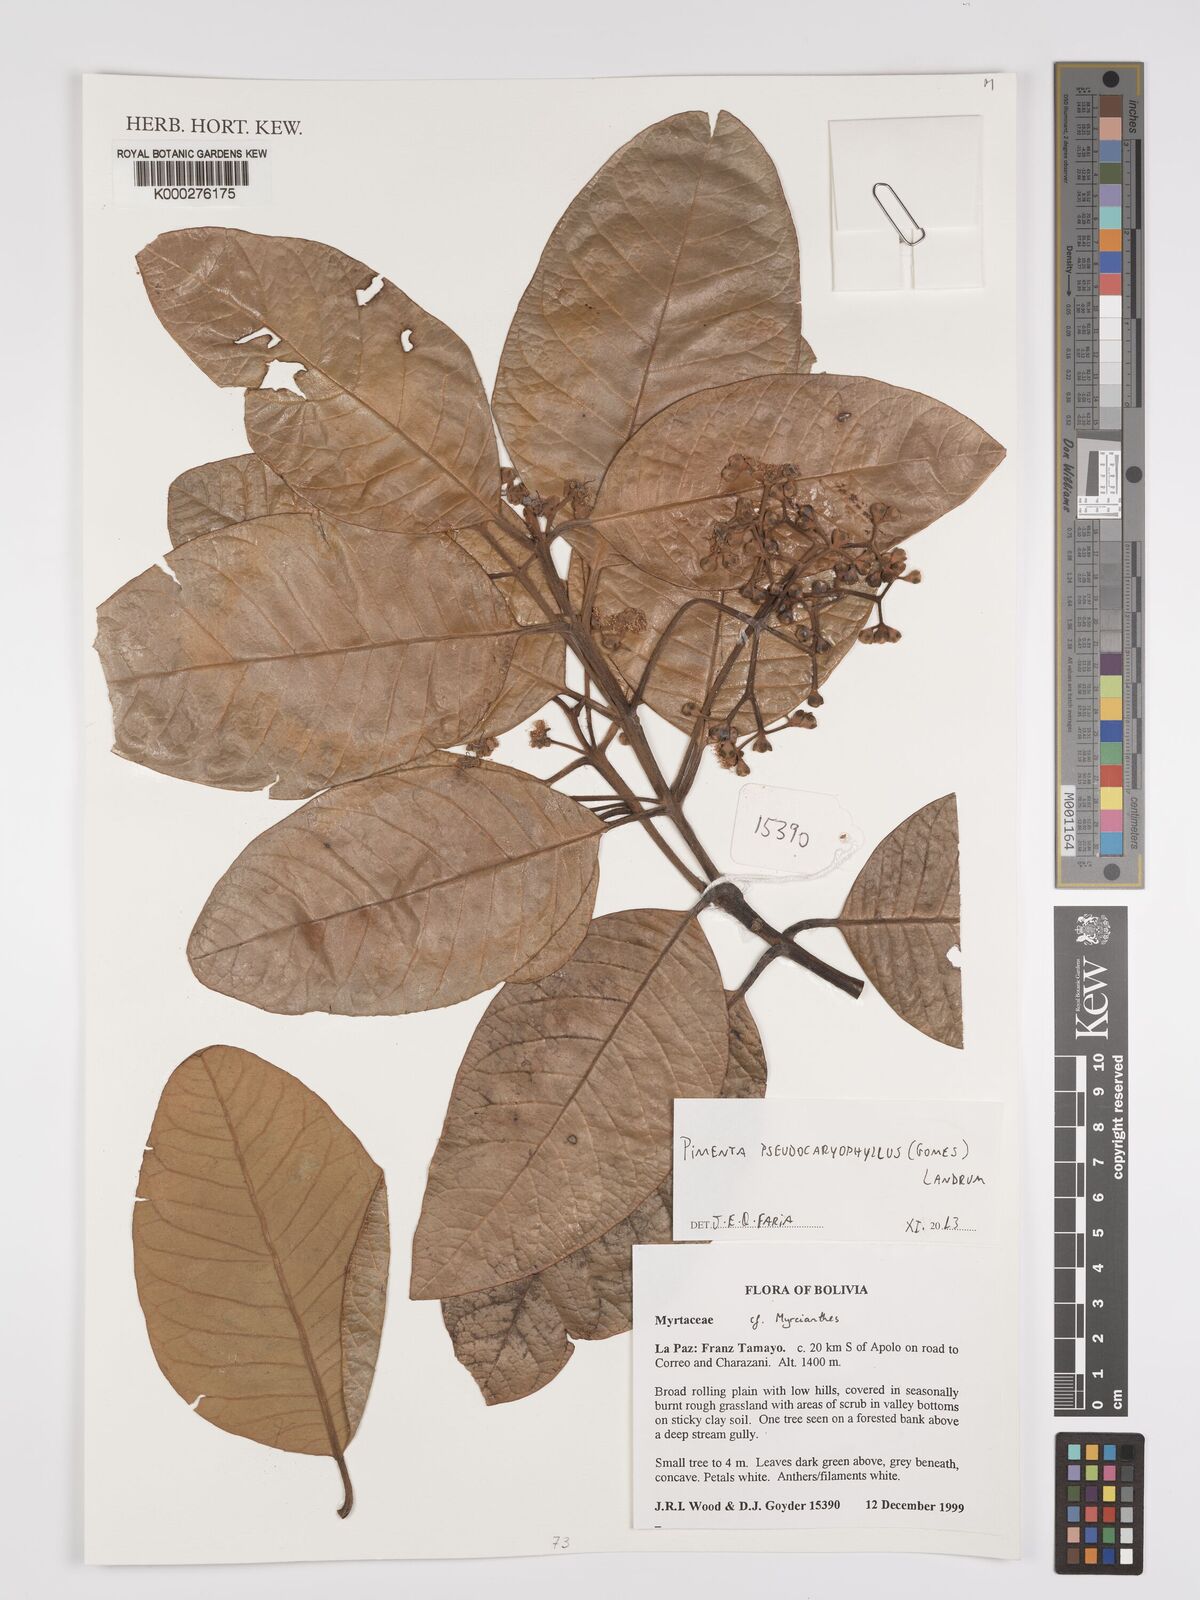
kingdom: Plantae
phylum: Tracheophyta
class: Magnoliopsida
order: Myrtales
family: Myrtaceae
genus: Pimenta
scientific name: Pimenta pseudocaryophyllus
